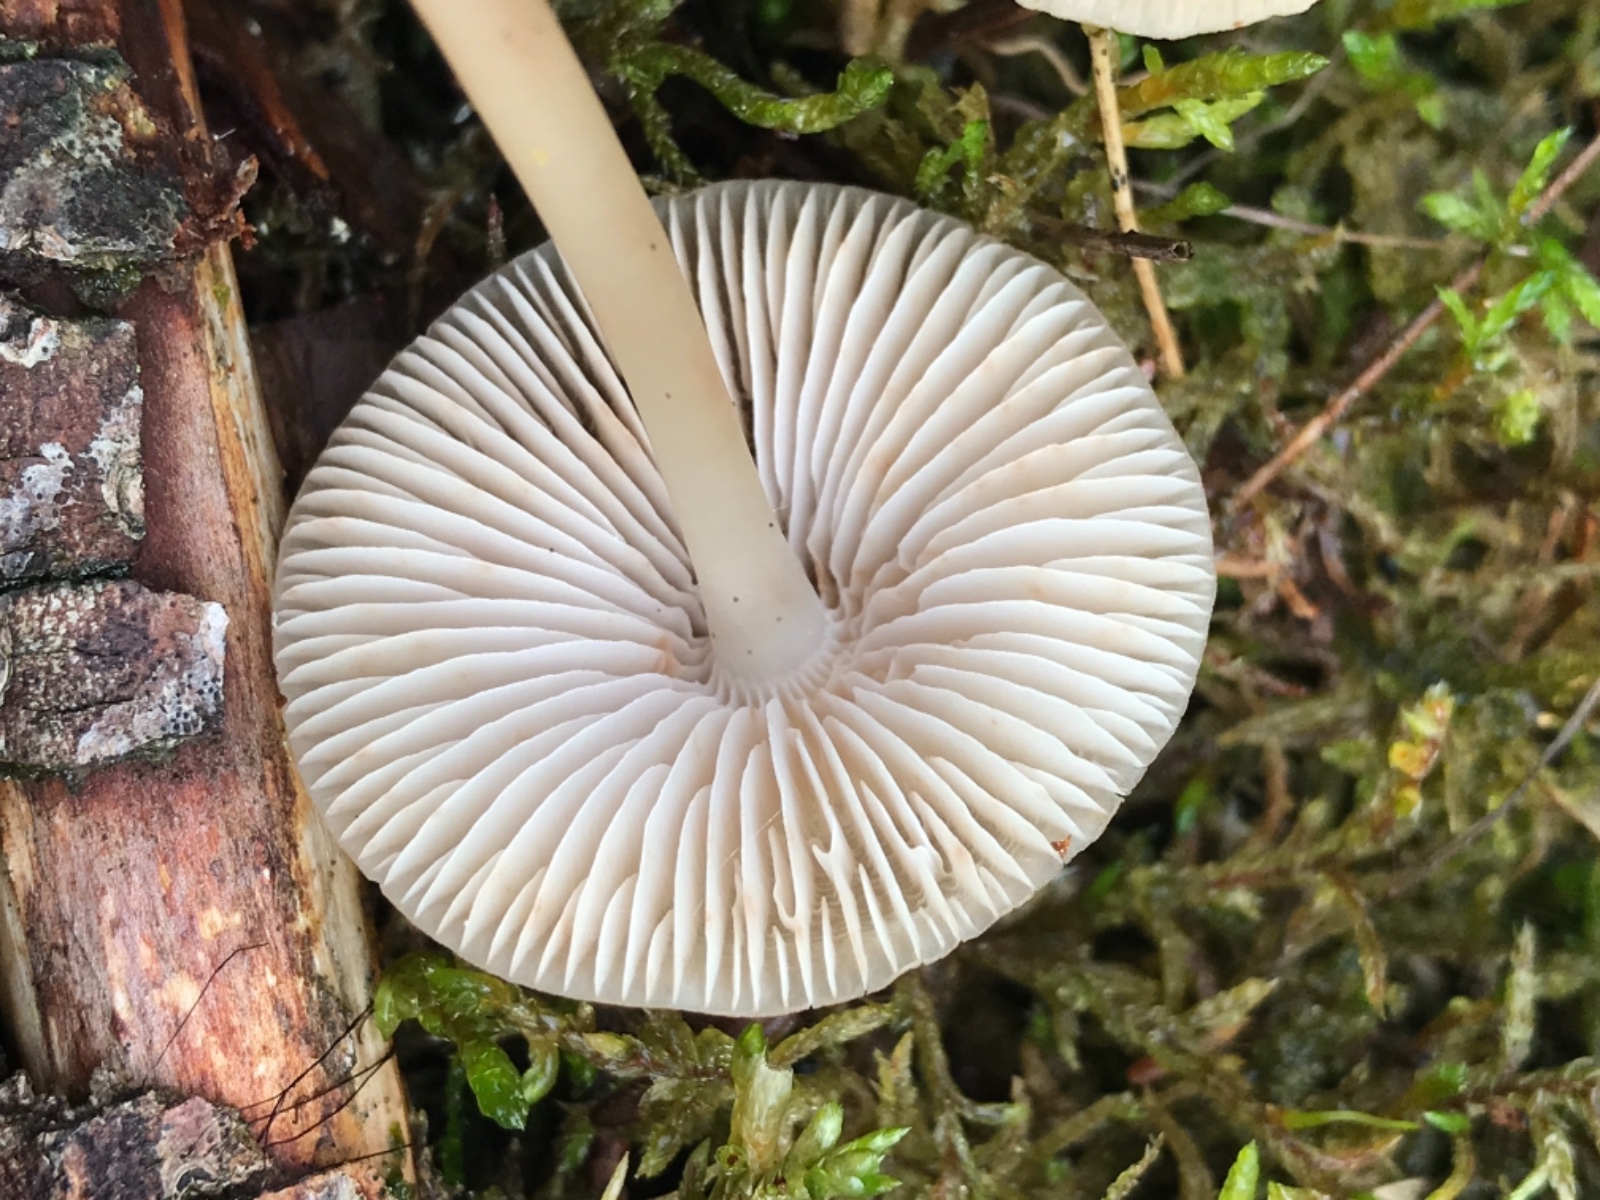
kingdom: Fungi
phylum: Basidiomycota
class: Agaricomycetes
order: Agaricales
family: Mycenaceae
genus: Mycena
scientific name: Mycena galericulata
